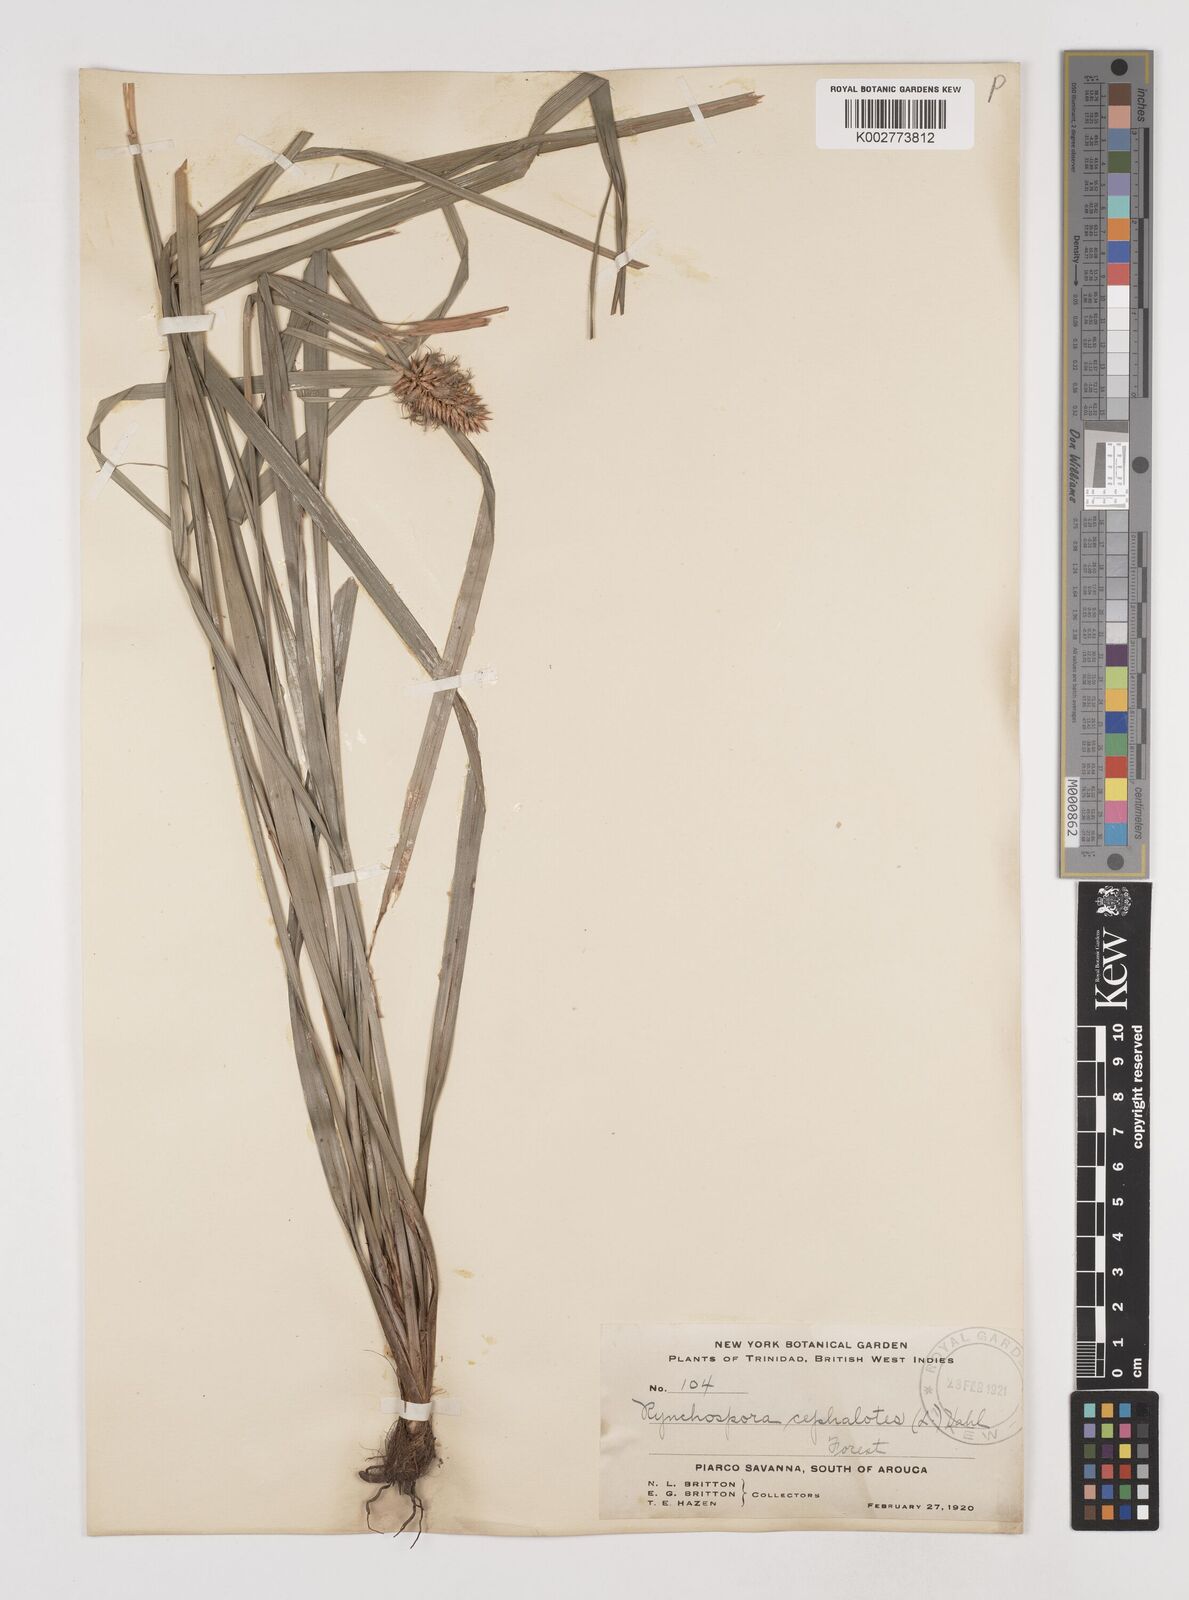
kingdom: Plantae
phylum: Tracheophyta
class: Liliopsida
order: Poales
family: Cyperaceae
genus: Rhynchospora
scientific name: Rhynchospora cephalotes
